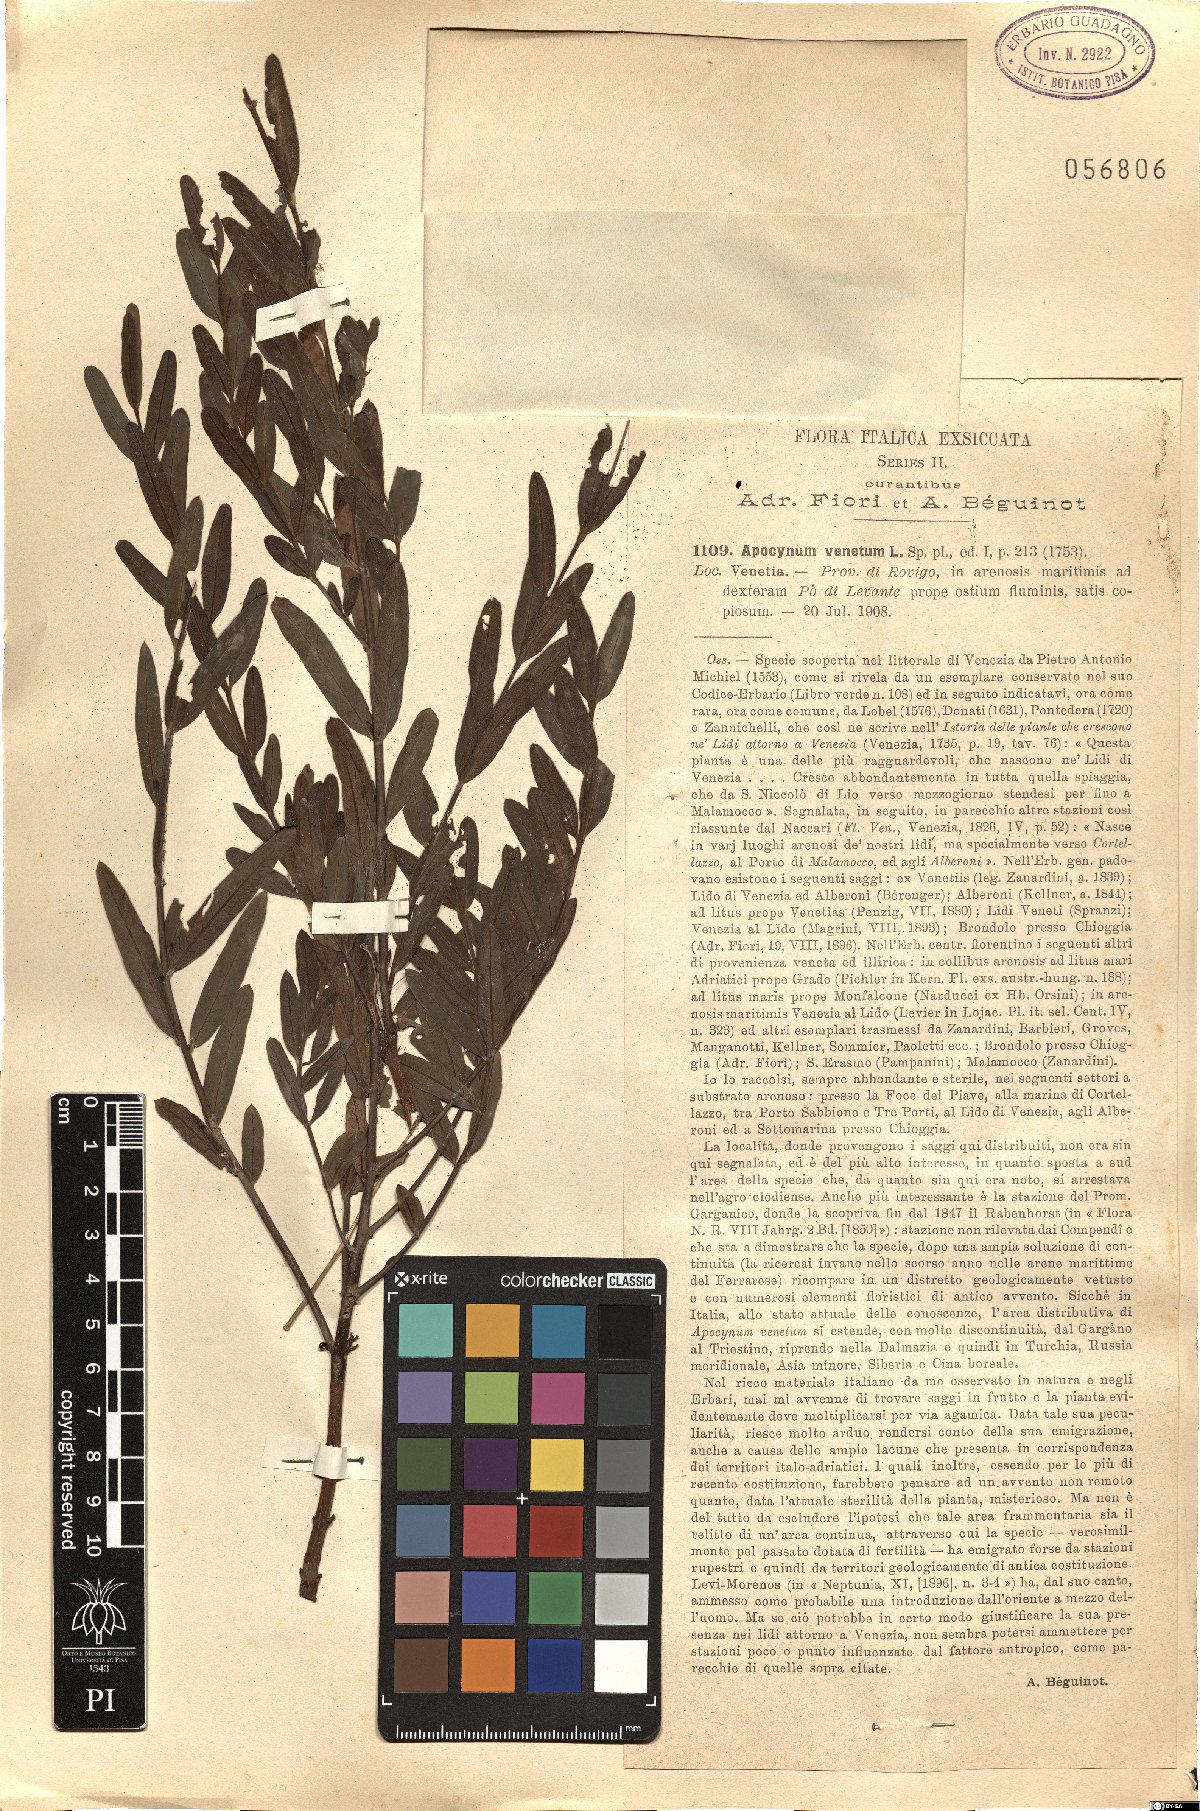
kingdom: Plantae
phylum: Tracheophyta
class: Magnoliopsida
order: Gentianales
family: Apocynaceae
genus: Poacynum
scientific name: Poacynum venetum
